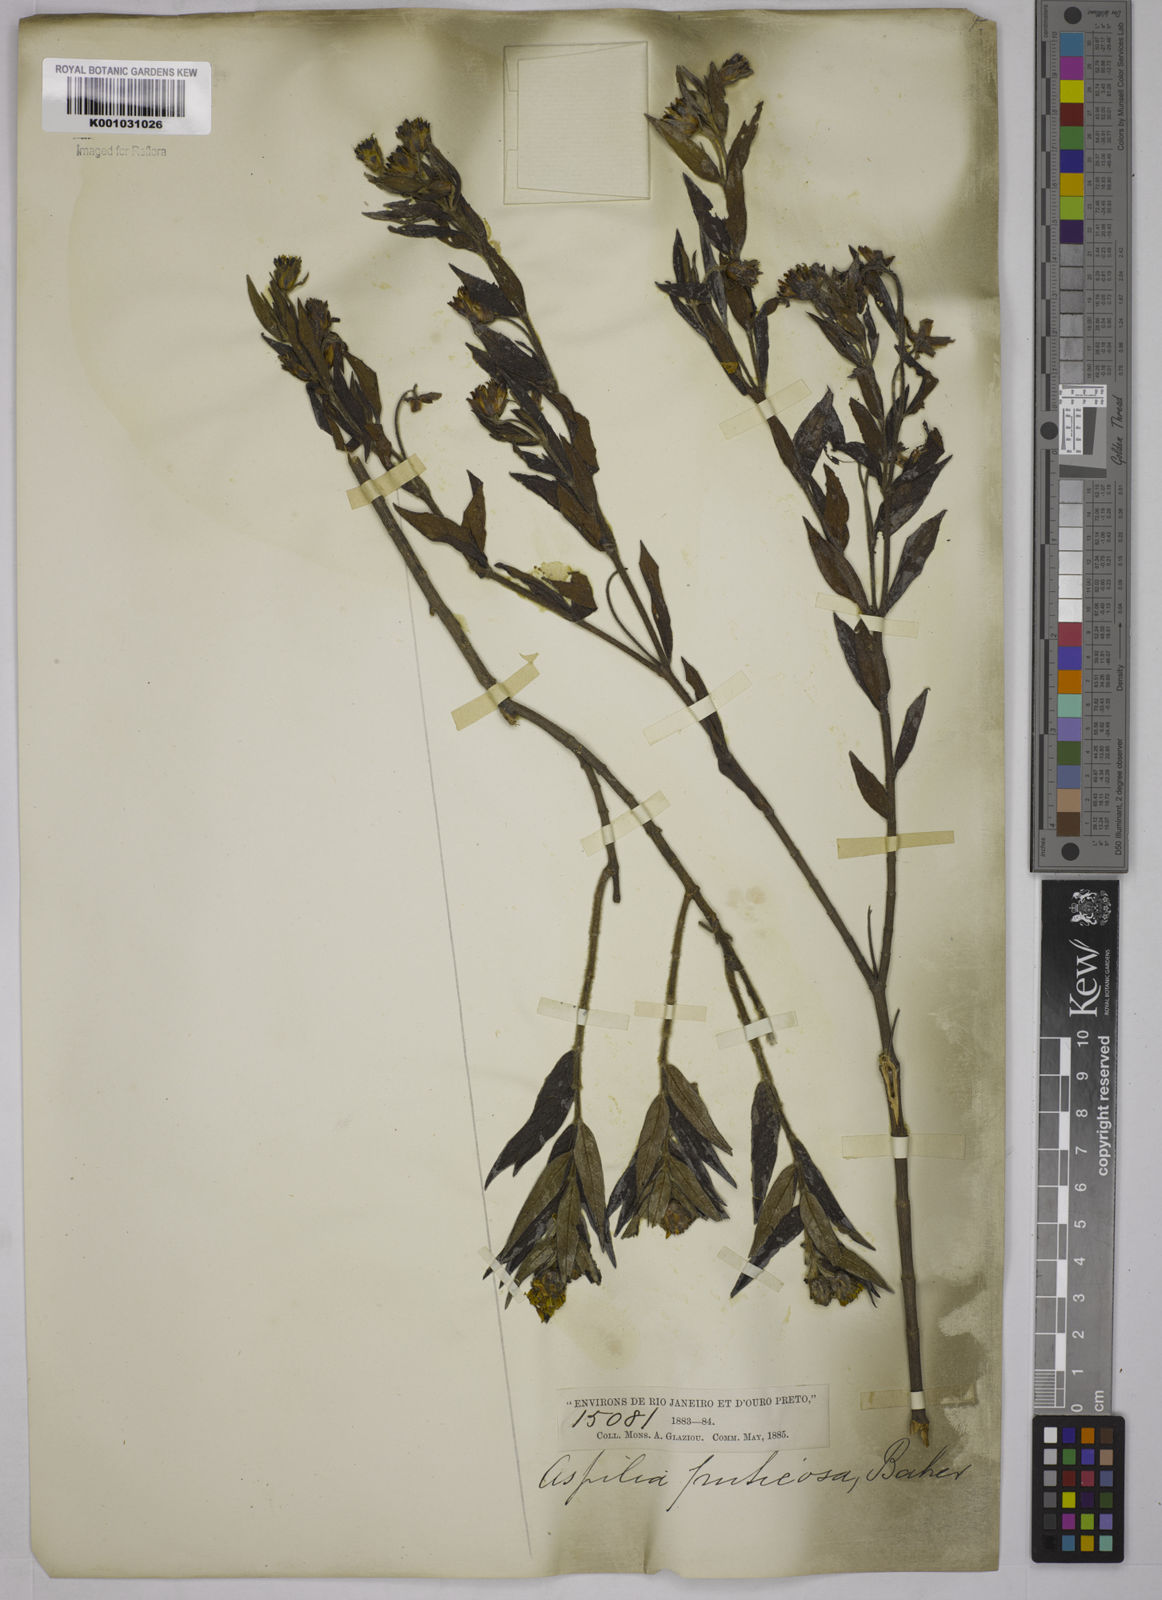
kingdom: Plantae
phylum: Tracheophyta
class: Magnoliopsida
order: Asterales
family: Asteraceae
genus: Wedelia
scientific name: Wedelia frustrata
